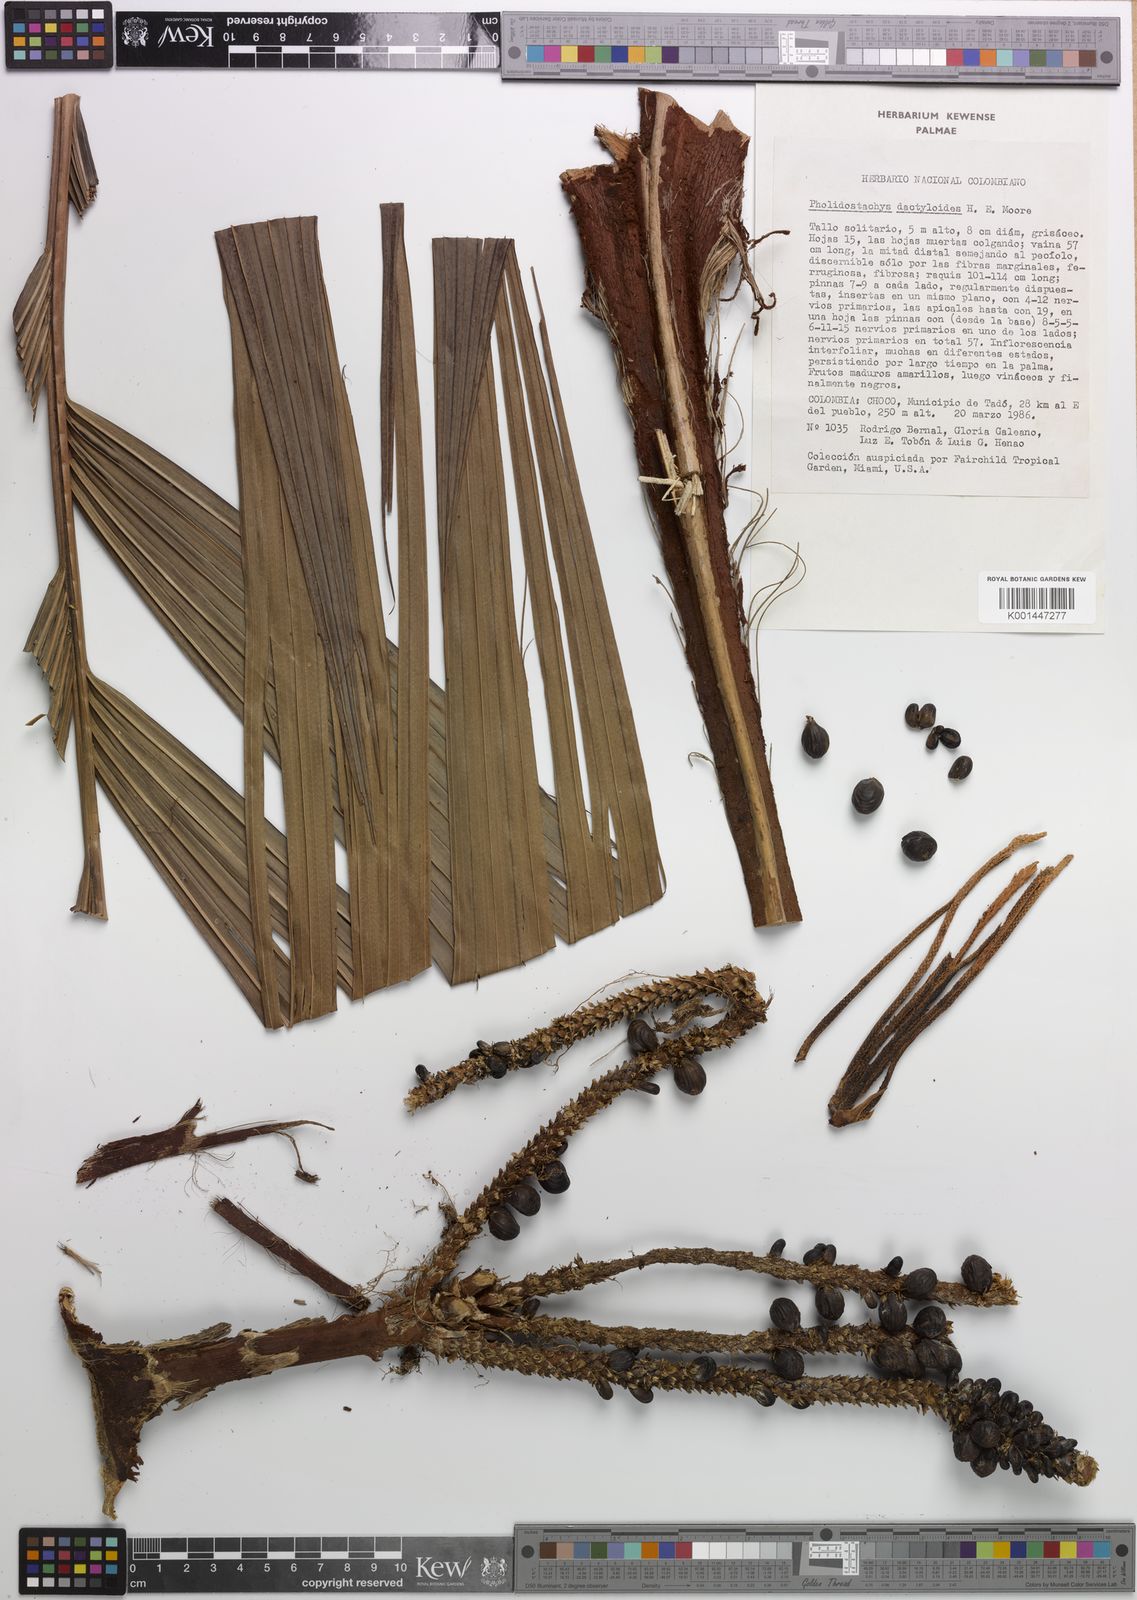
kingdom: Plantae
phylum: Tracheophyta
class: Liliopsida
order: Arecales
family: Arecaceae
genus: Pholidostachys
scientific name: Pholidostachys dactyloides
